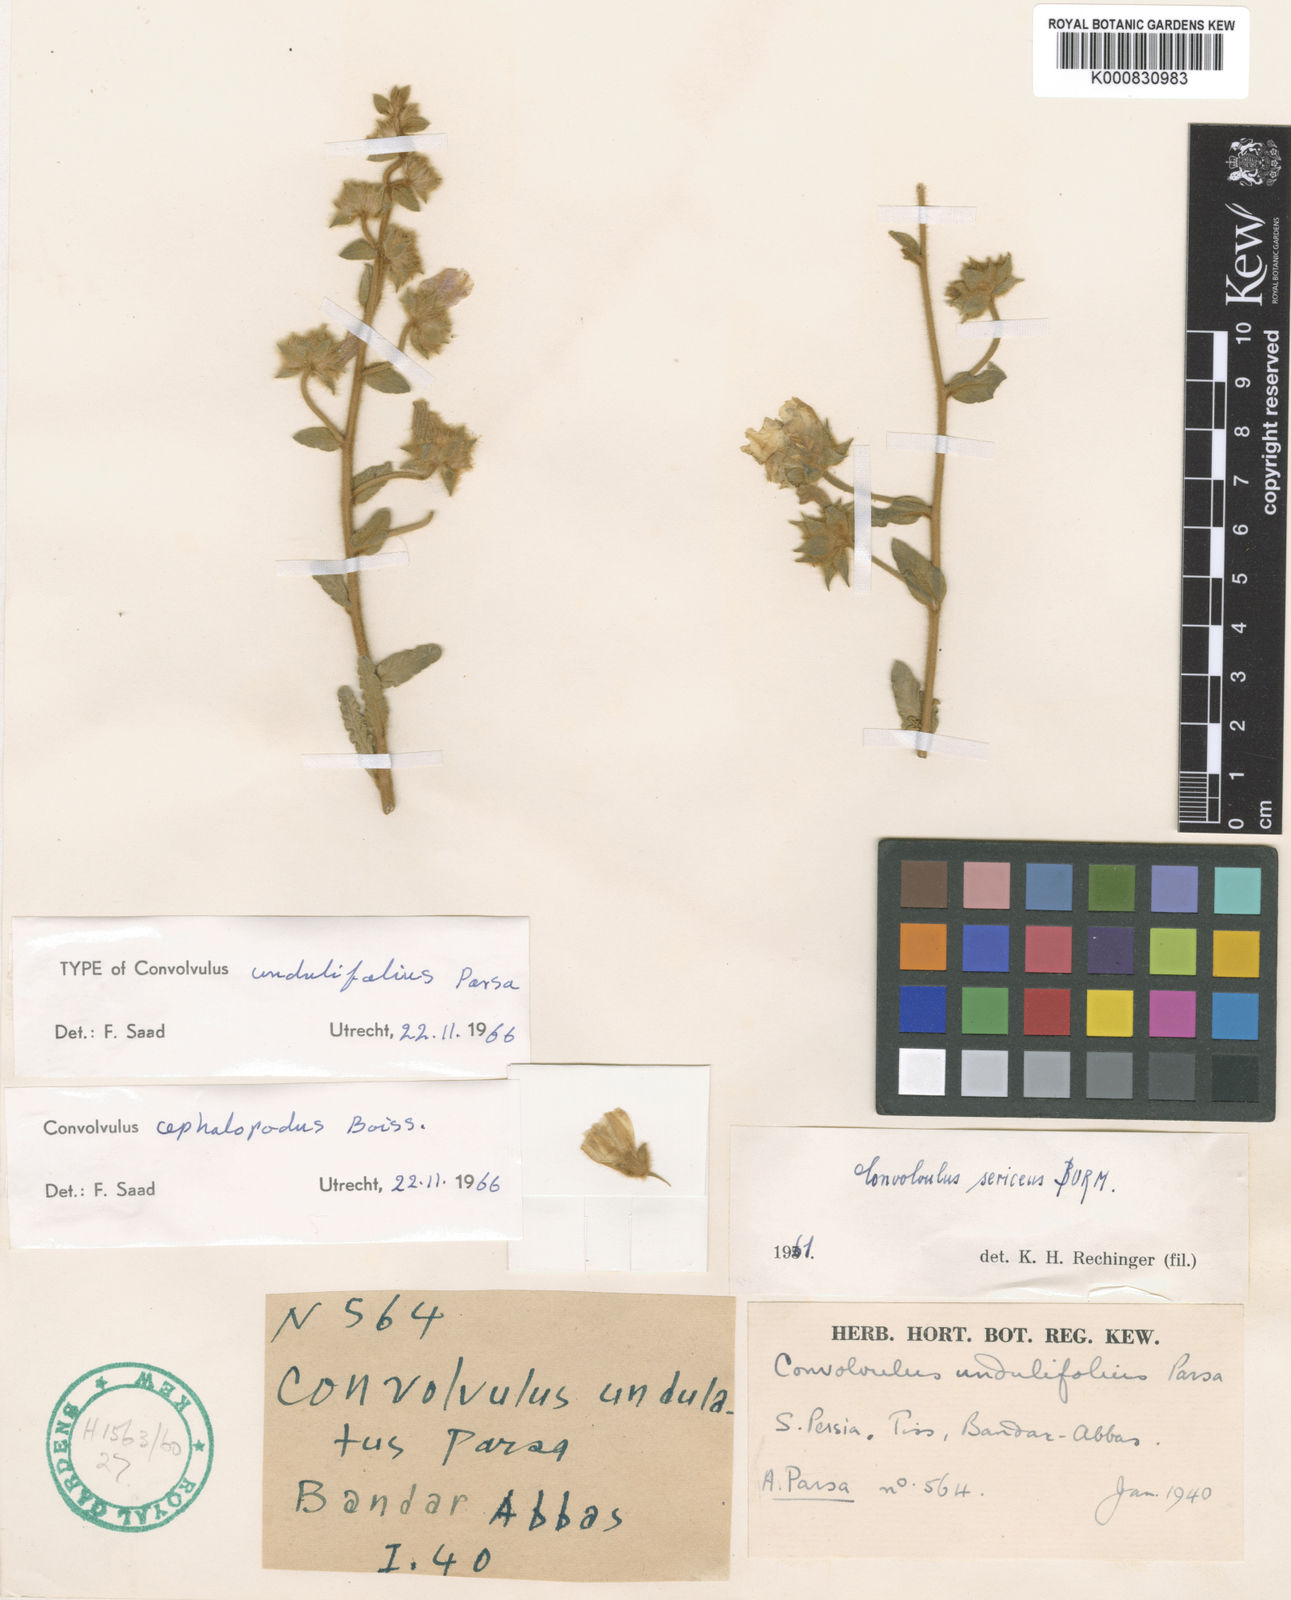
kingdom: Plantae
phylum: Tracheophyta
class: Magnoliopsida
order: Solanales
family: Convolvulaceae
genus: Convolvulus
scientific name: Convolvulus cephalopodus
